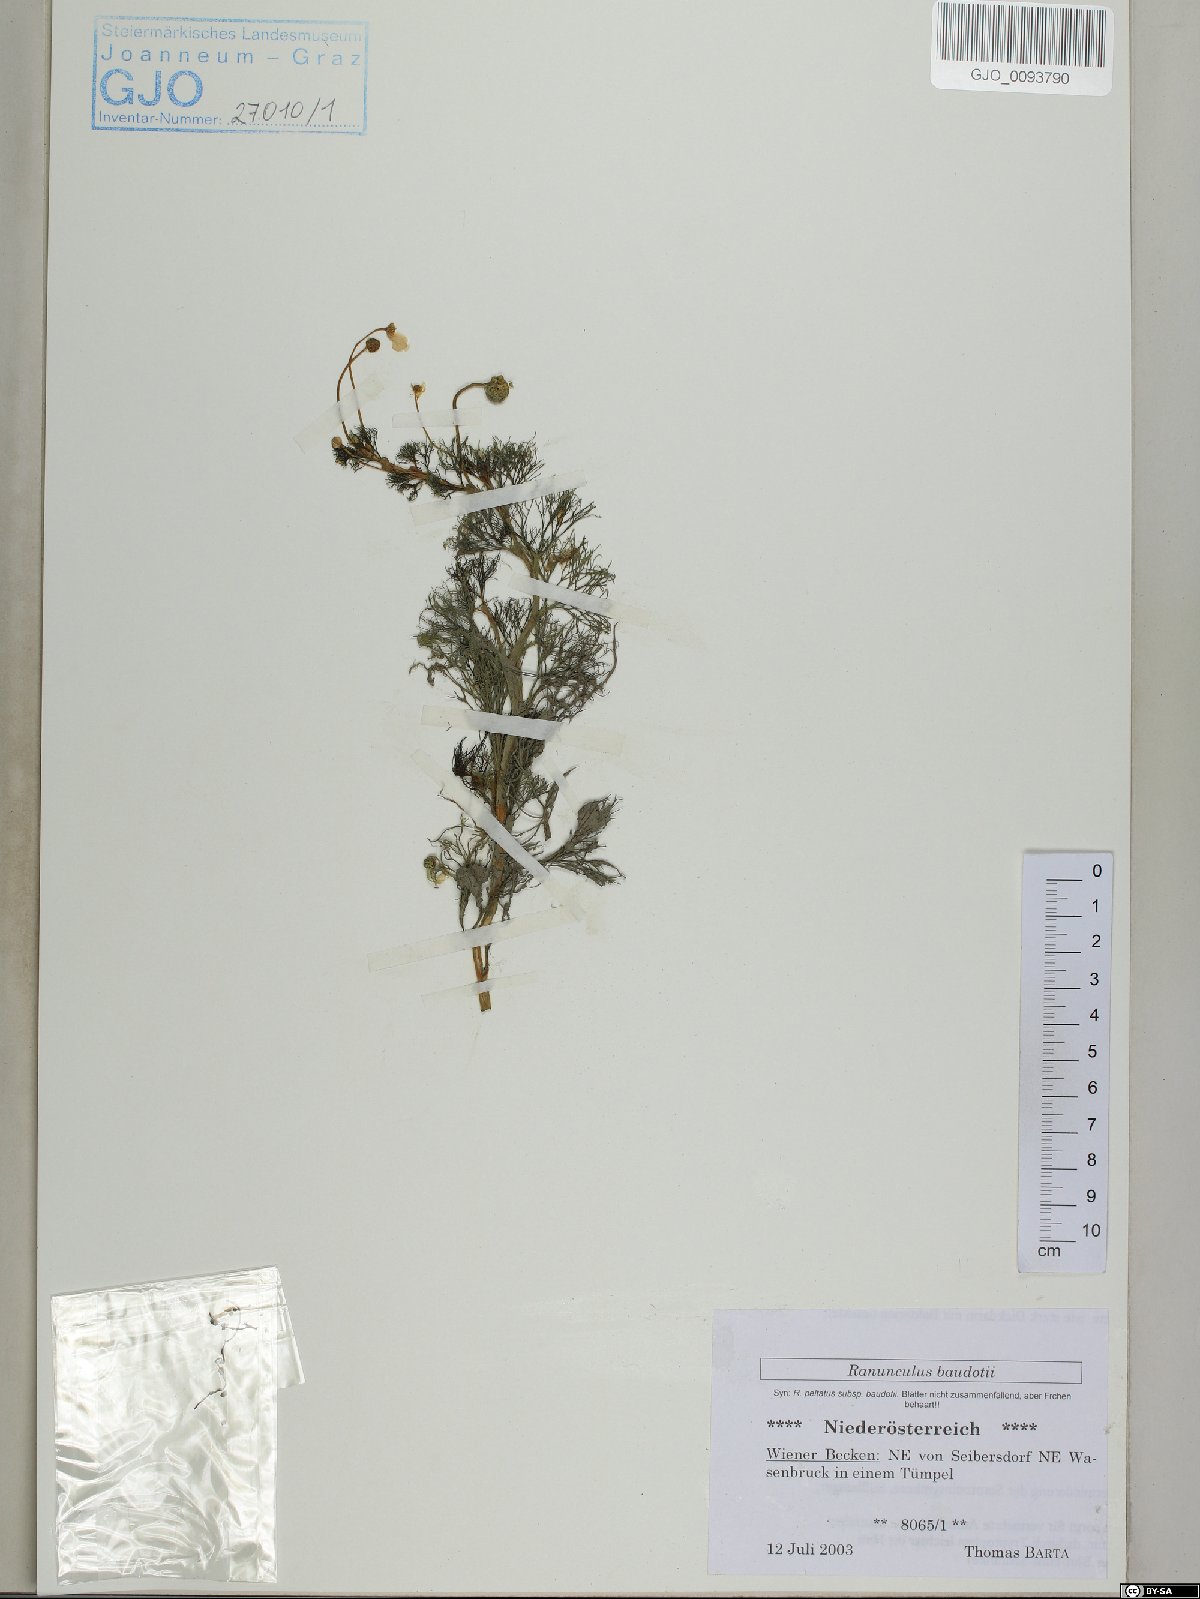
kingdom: Plantae
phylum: Tracheophyta
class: Magnoliopsida
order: Ranunculales
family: Ranunculaceae
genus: Ranunculus
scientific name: Ranunculus peltatus
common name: Pond water-crowfoot
